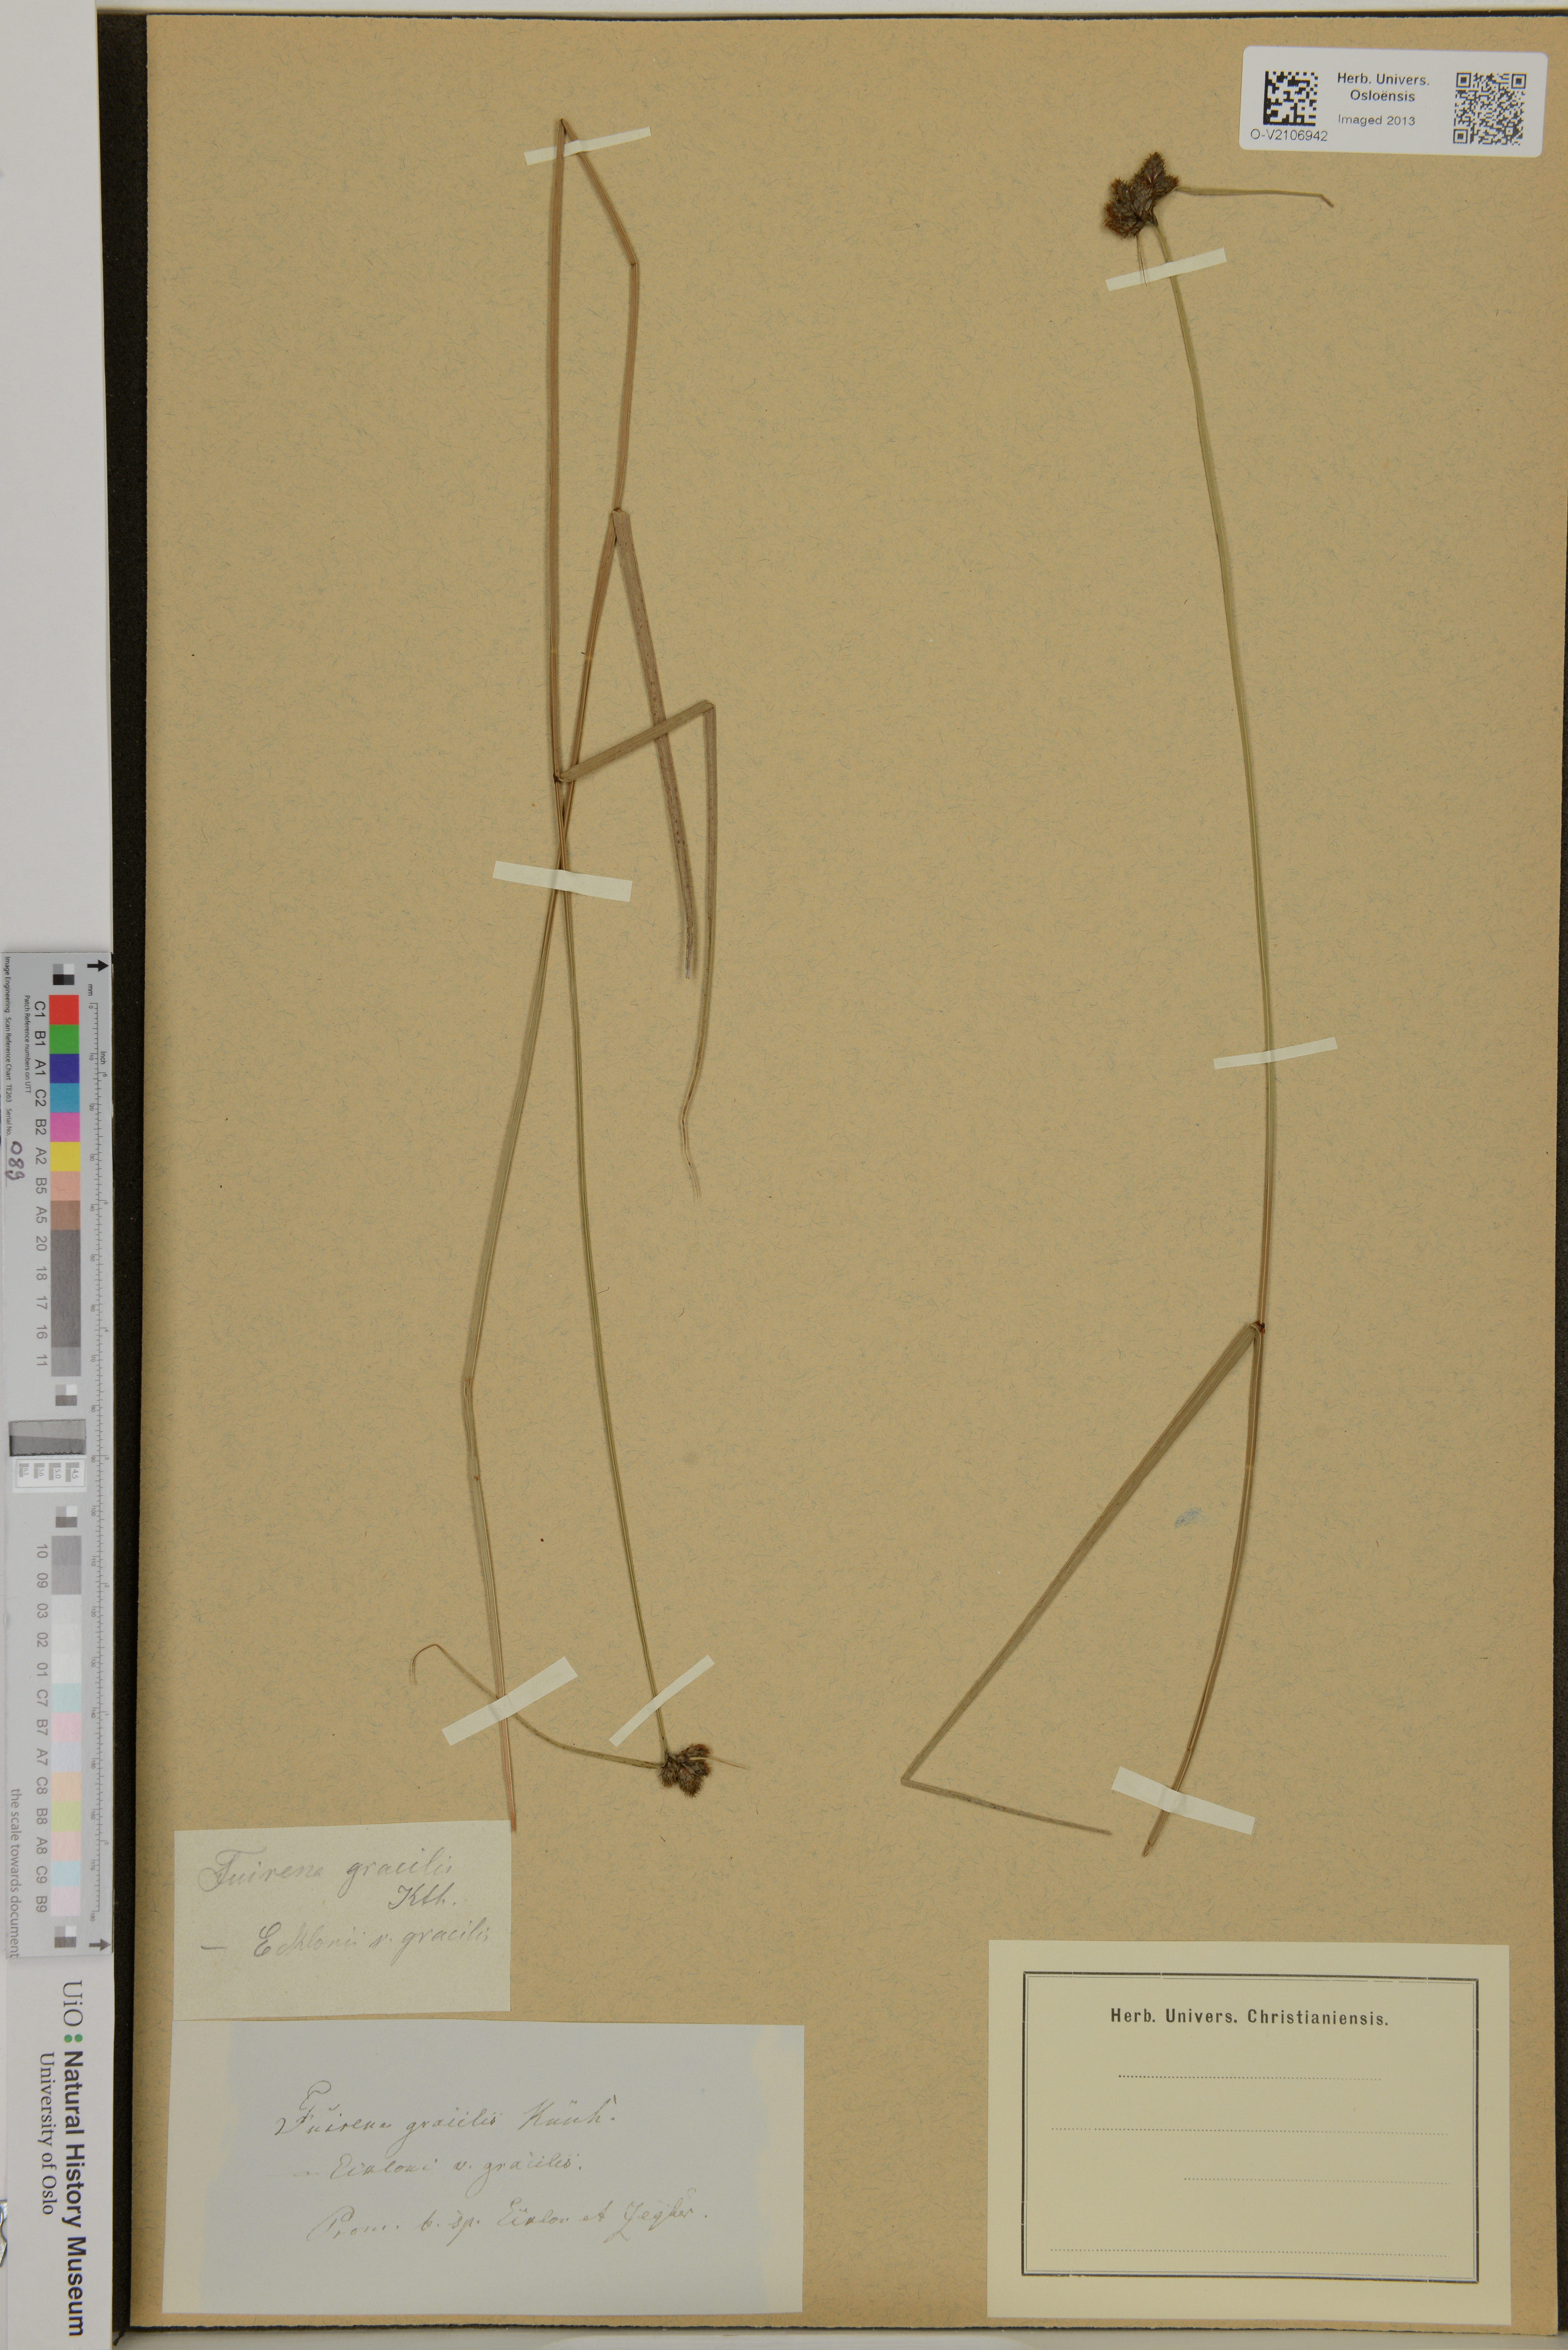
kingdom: Plantae
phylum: Tracheophyta
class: Liliopsida
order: Poales
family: Cyperaceae
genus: Fuirena
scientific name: Fuirena coerulescens
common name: Blue umbrella-sedge
